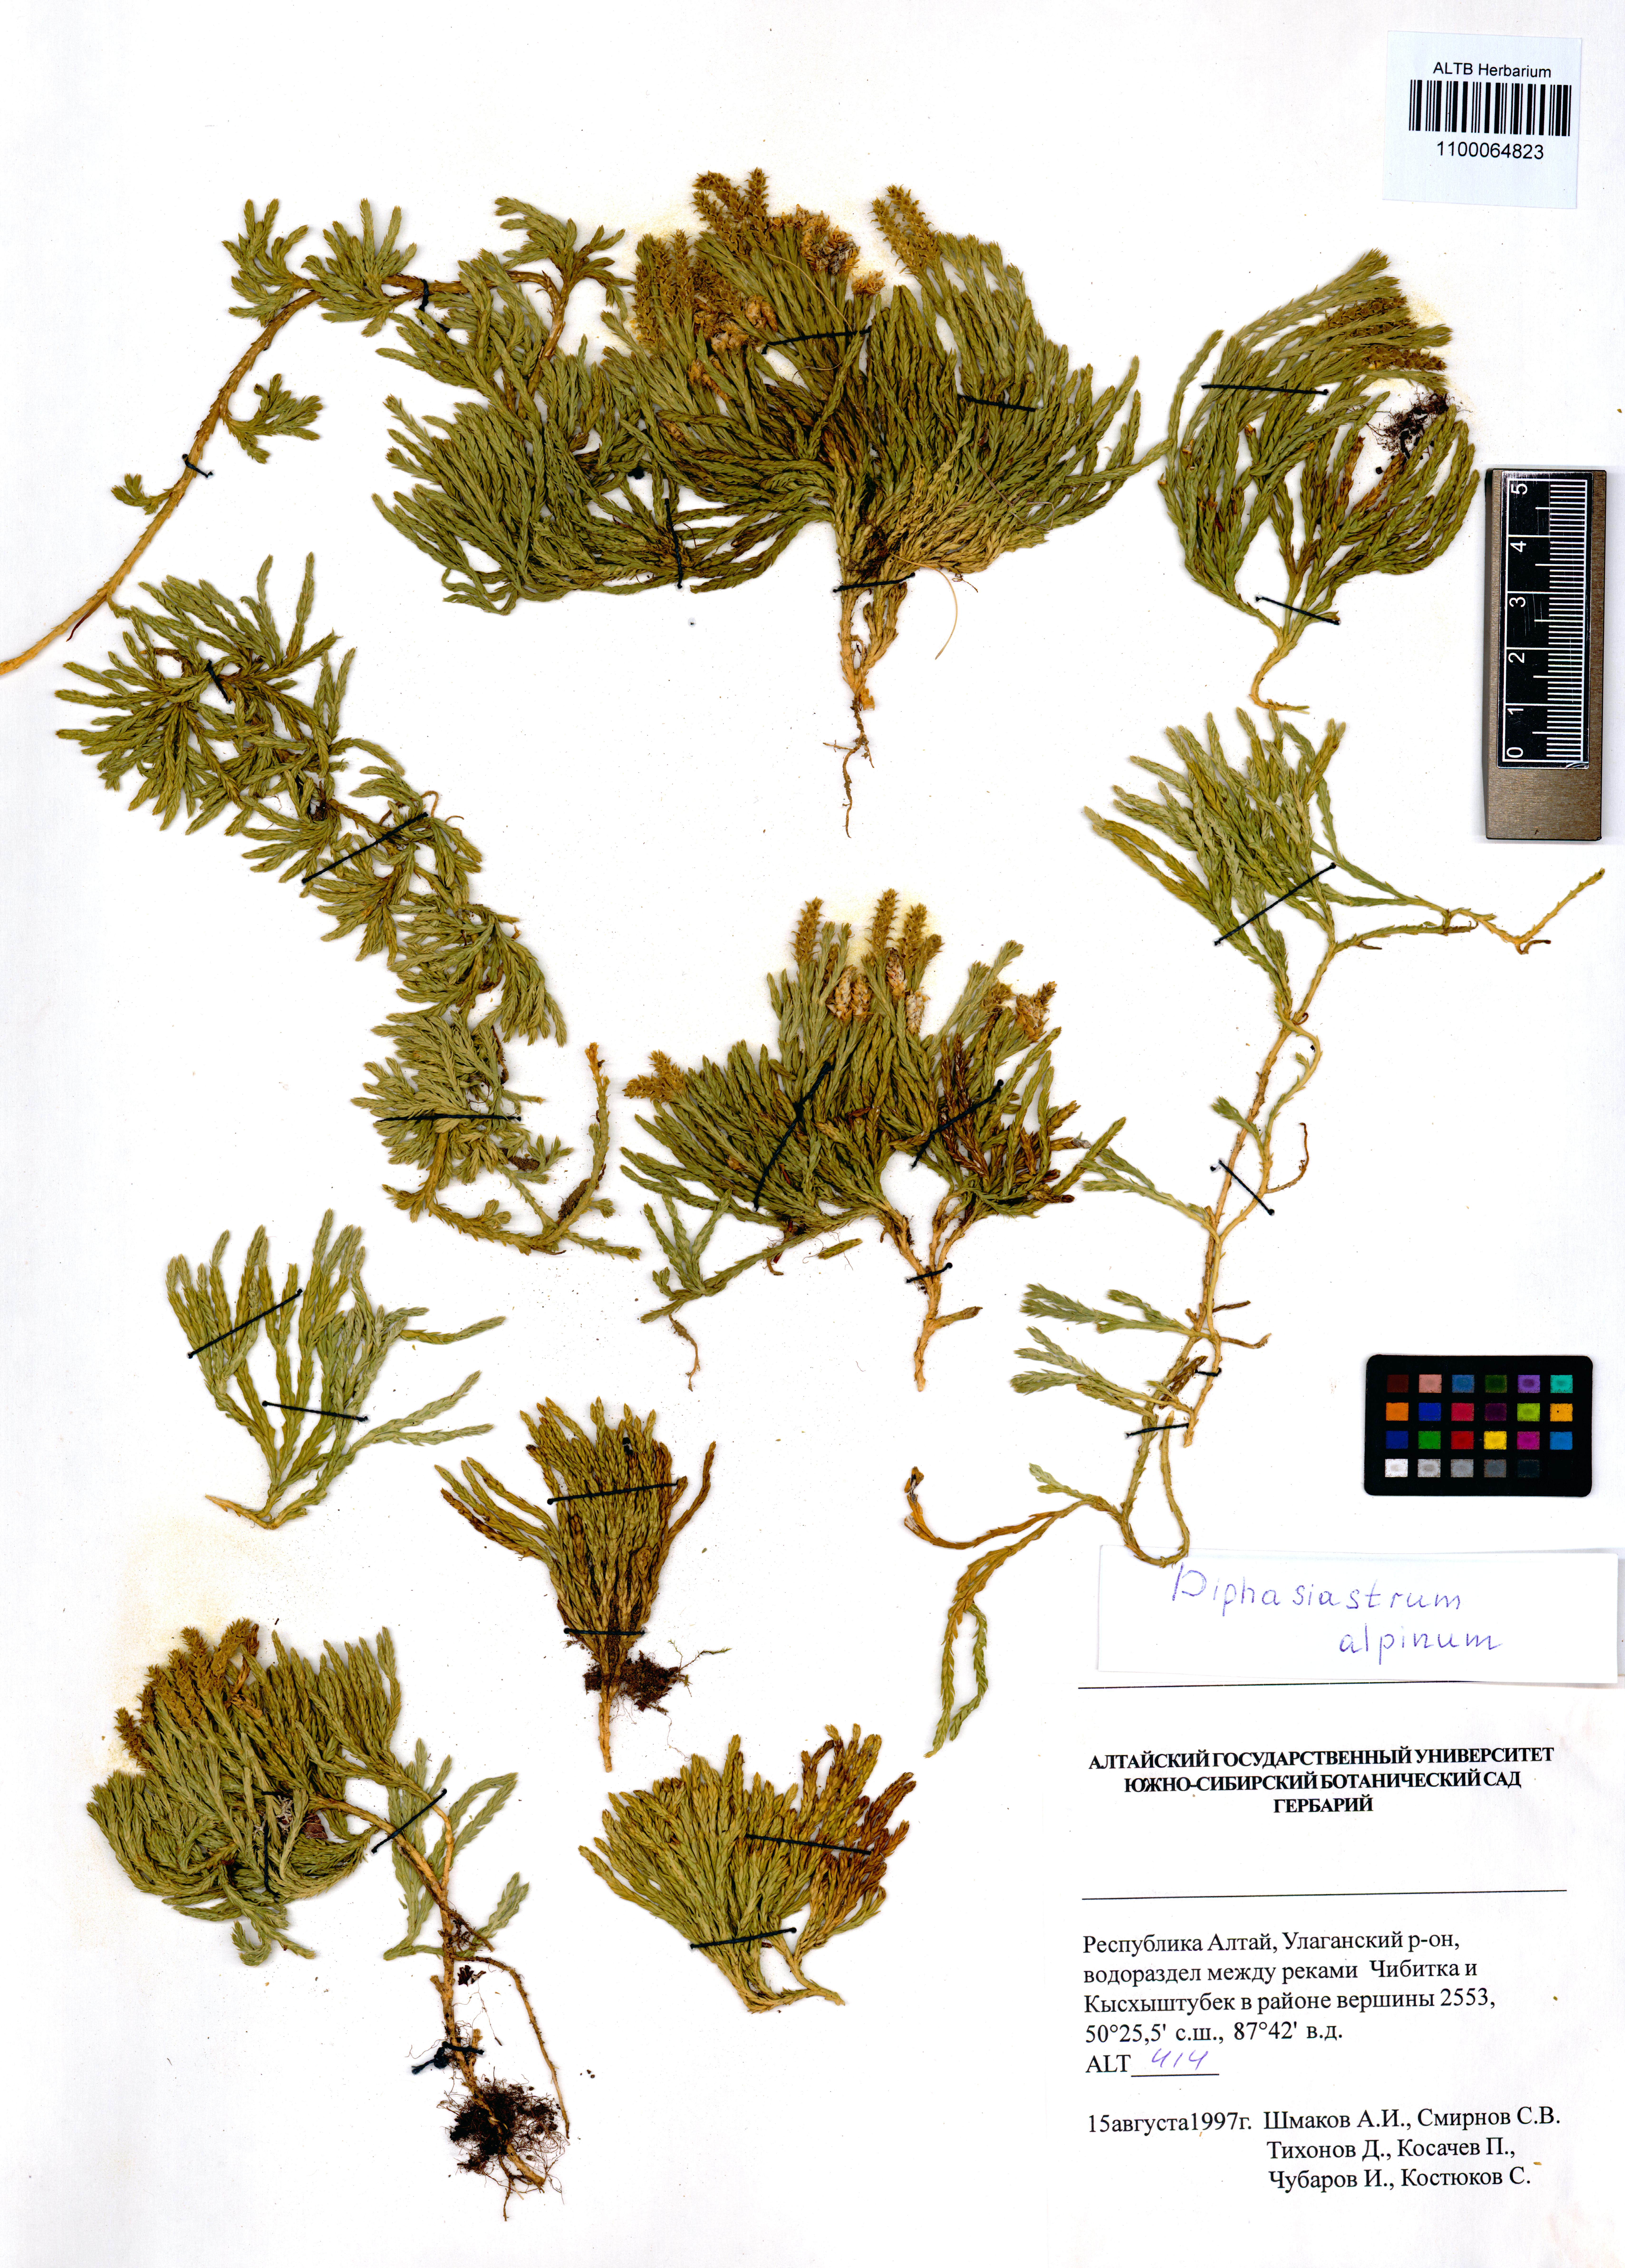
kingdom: Plantae
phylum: Tracheophyta
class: Lycopodiopsida
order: Lycopodiales
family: Lycopodiaceae
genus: Diphasiastrum
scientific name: Diphasiastrum alpinum
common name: Alpine clubmoss
